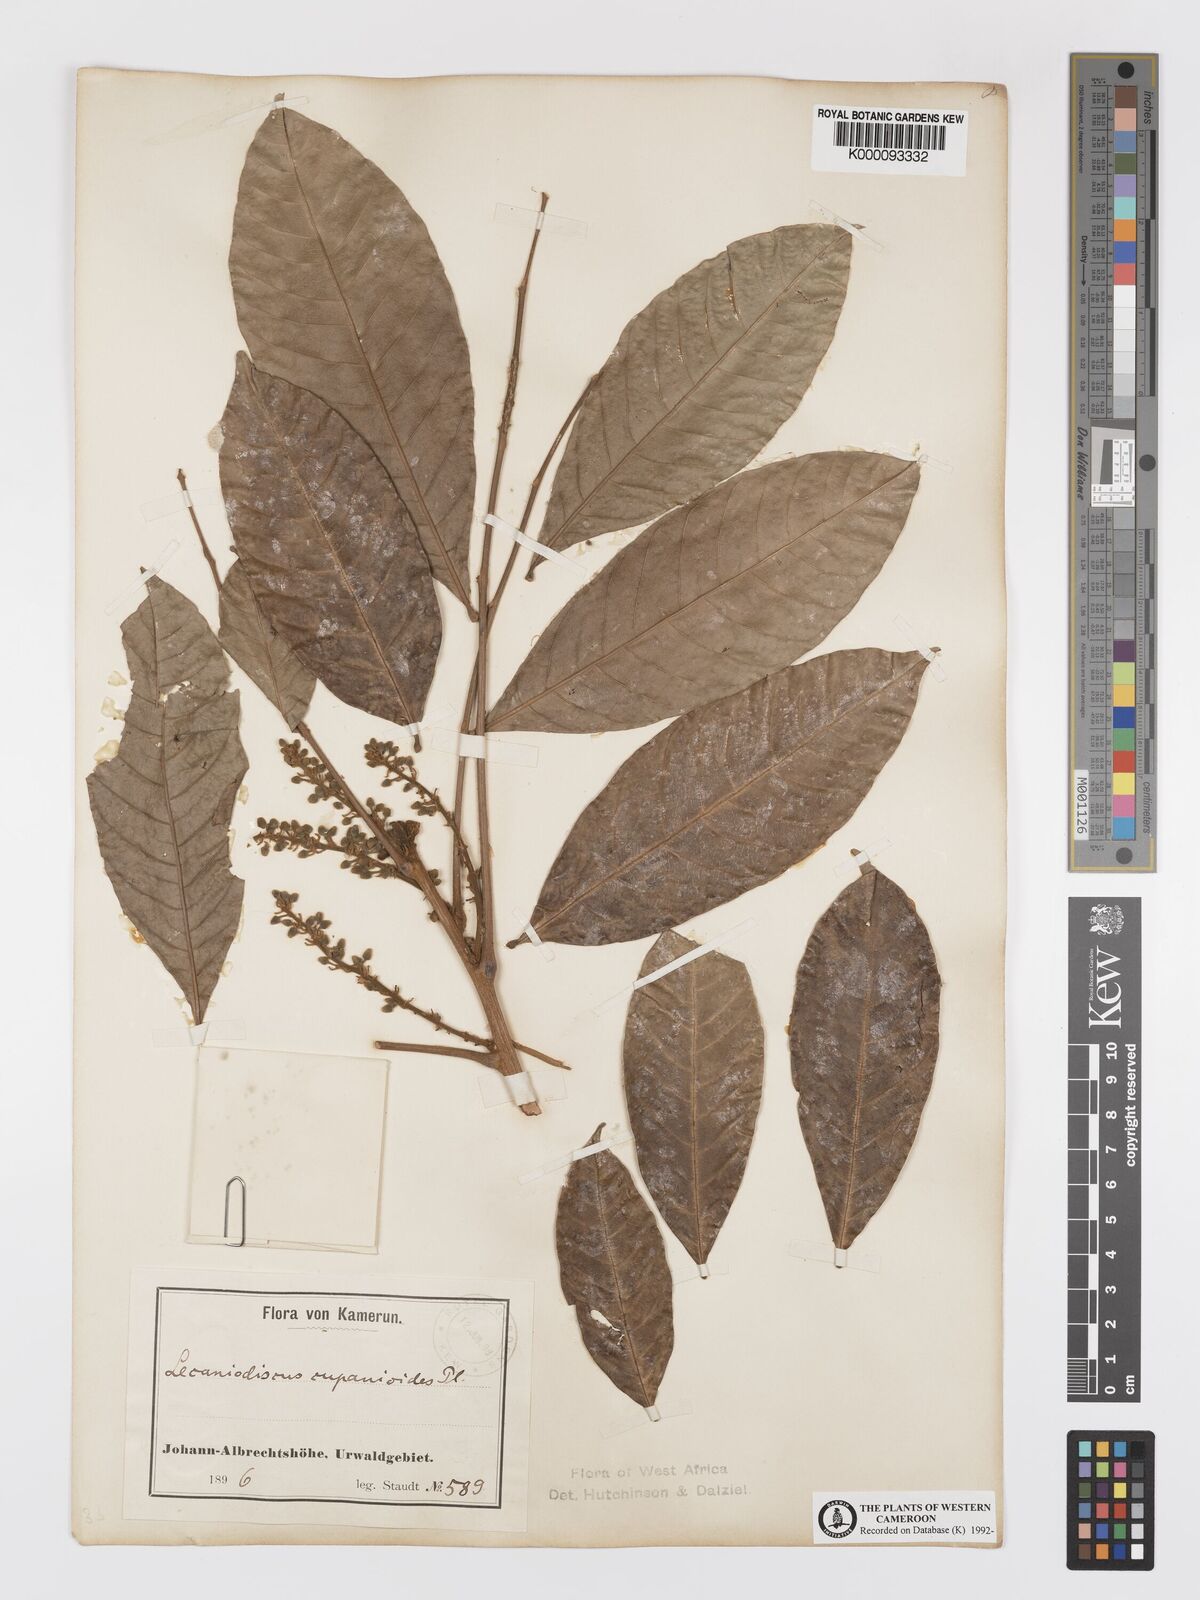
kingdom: Plantae
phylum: Tracheophyta
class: Magnoliopsida
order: Sapindales
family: Sapindaceae
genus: Lecaniodiscus
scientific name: Lecaniodiscus cupanioides
